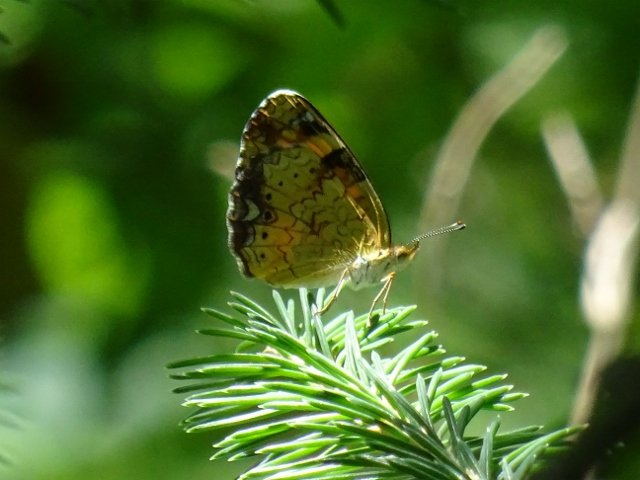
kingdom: Animalia
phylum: Arthropoda
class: Insecta
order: Lepidoptera
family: Nymphalidae
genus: Phyciodes
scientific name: Phyciodes tharos
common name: Northern Crescent
